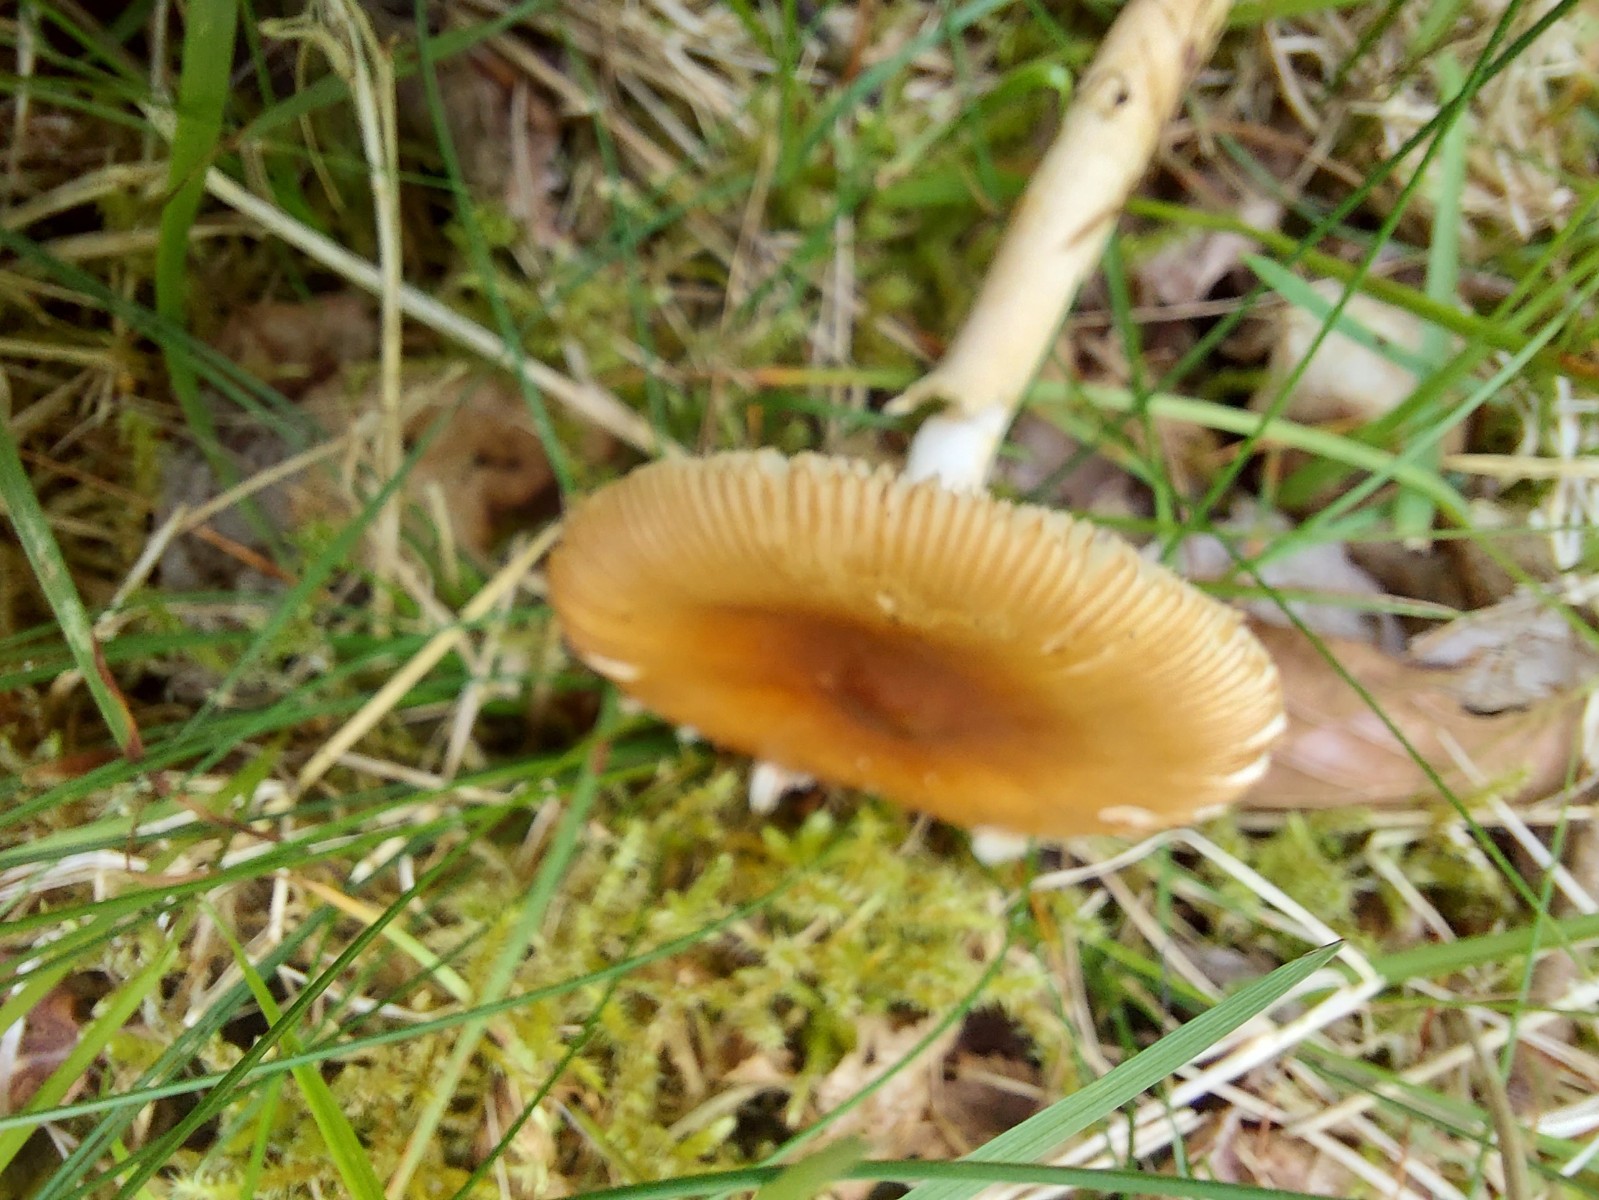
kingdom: Fungi
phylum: Basidiomycota
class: Agaricomycetes
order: Agaricales
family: Amanitaceae
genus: Amanita
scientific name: Amanita fulva
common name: brun kam-fluesvamp
